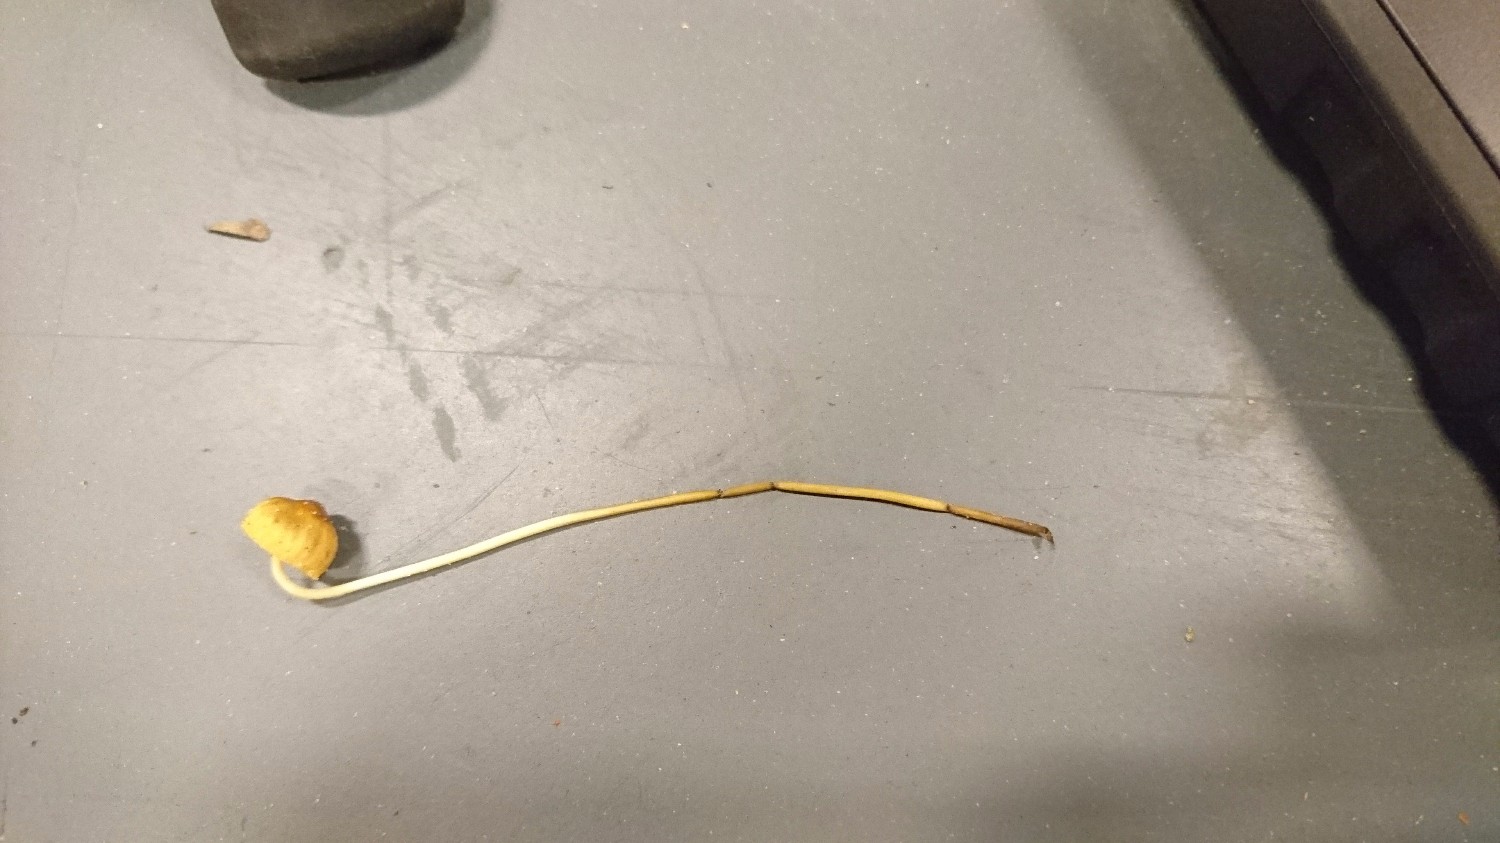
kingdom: Fungi
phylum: Basidiomycota
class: Agaricomycetes
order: Agaricales
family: Mycenaceae
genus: Mycena
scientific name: Mycena olivaceomarginata
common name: brunægget huesvamp
